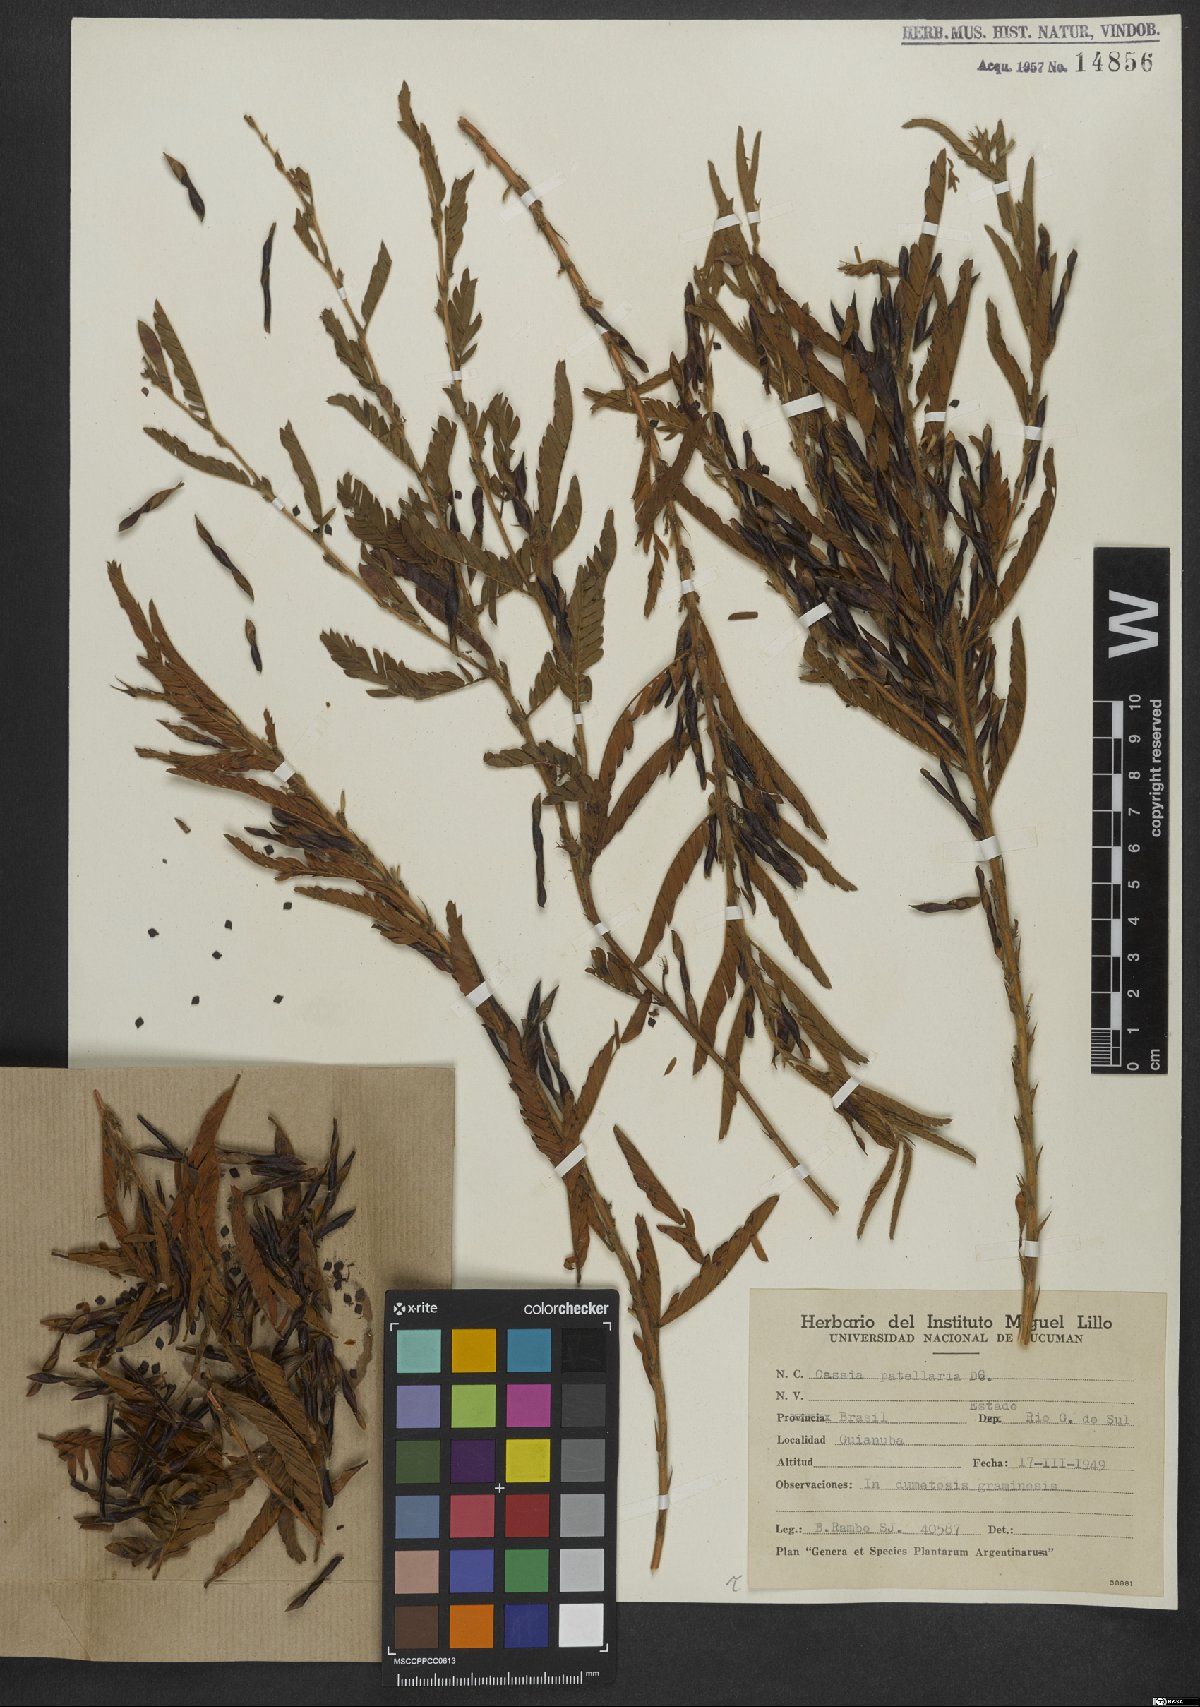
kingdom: Plantae
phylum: Tracheophyta
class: Magnoliopsida
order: Fabales
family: Fabaceae
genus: Chamaecrista
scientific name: Chamaecrista nictitans
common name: Sensitive cassia
